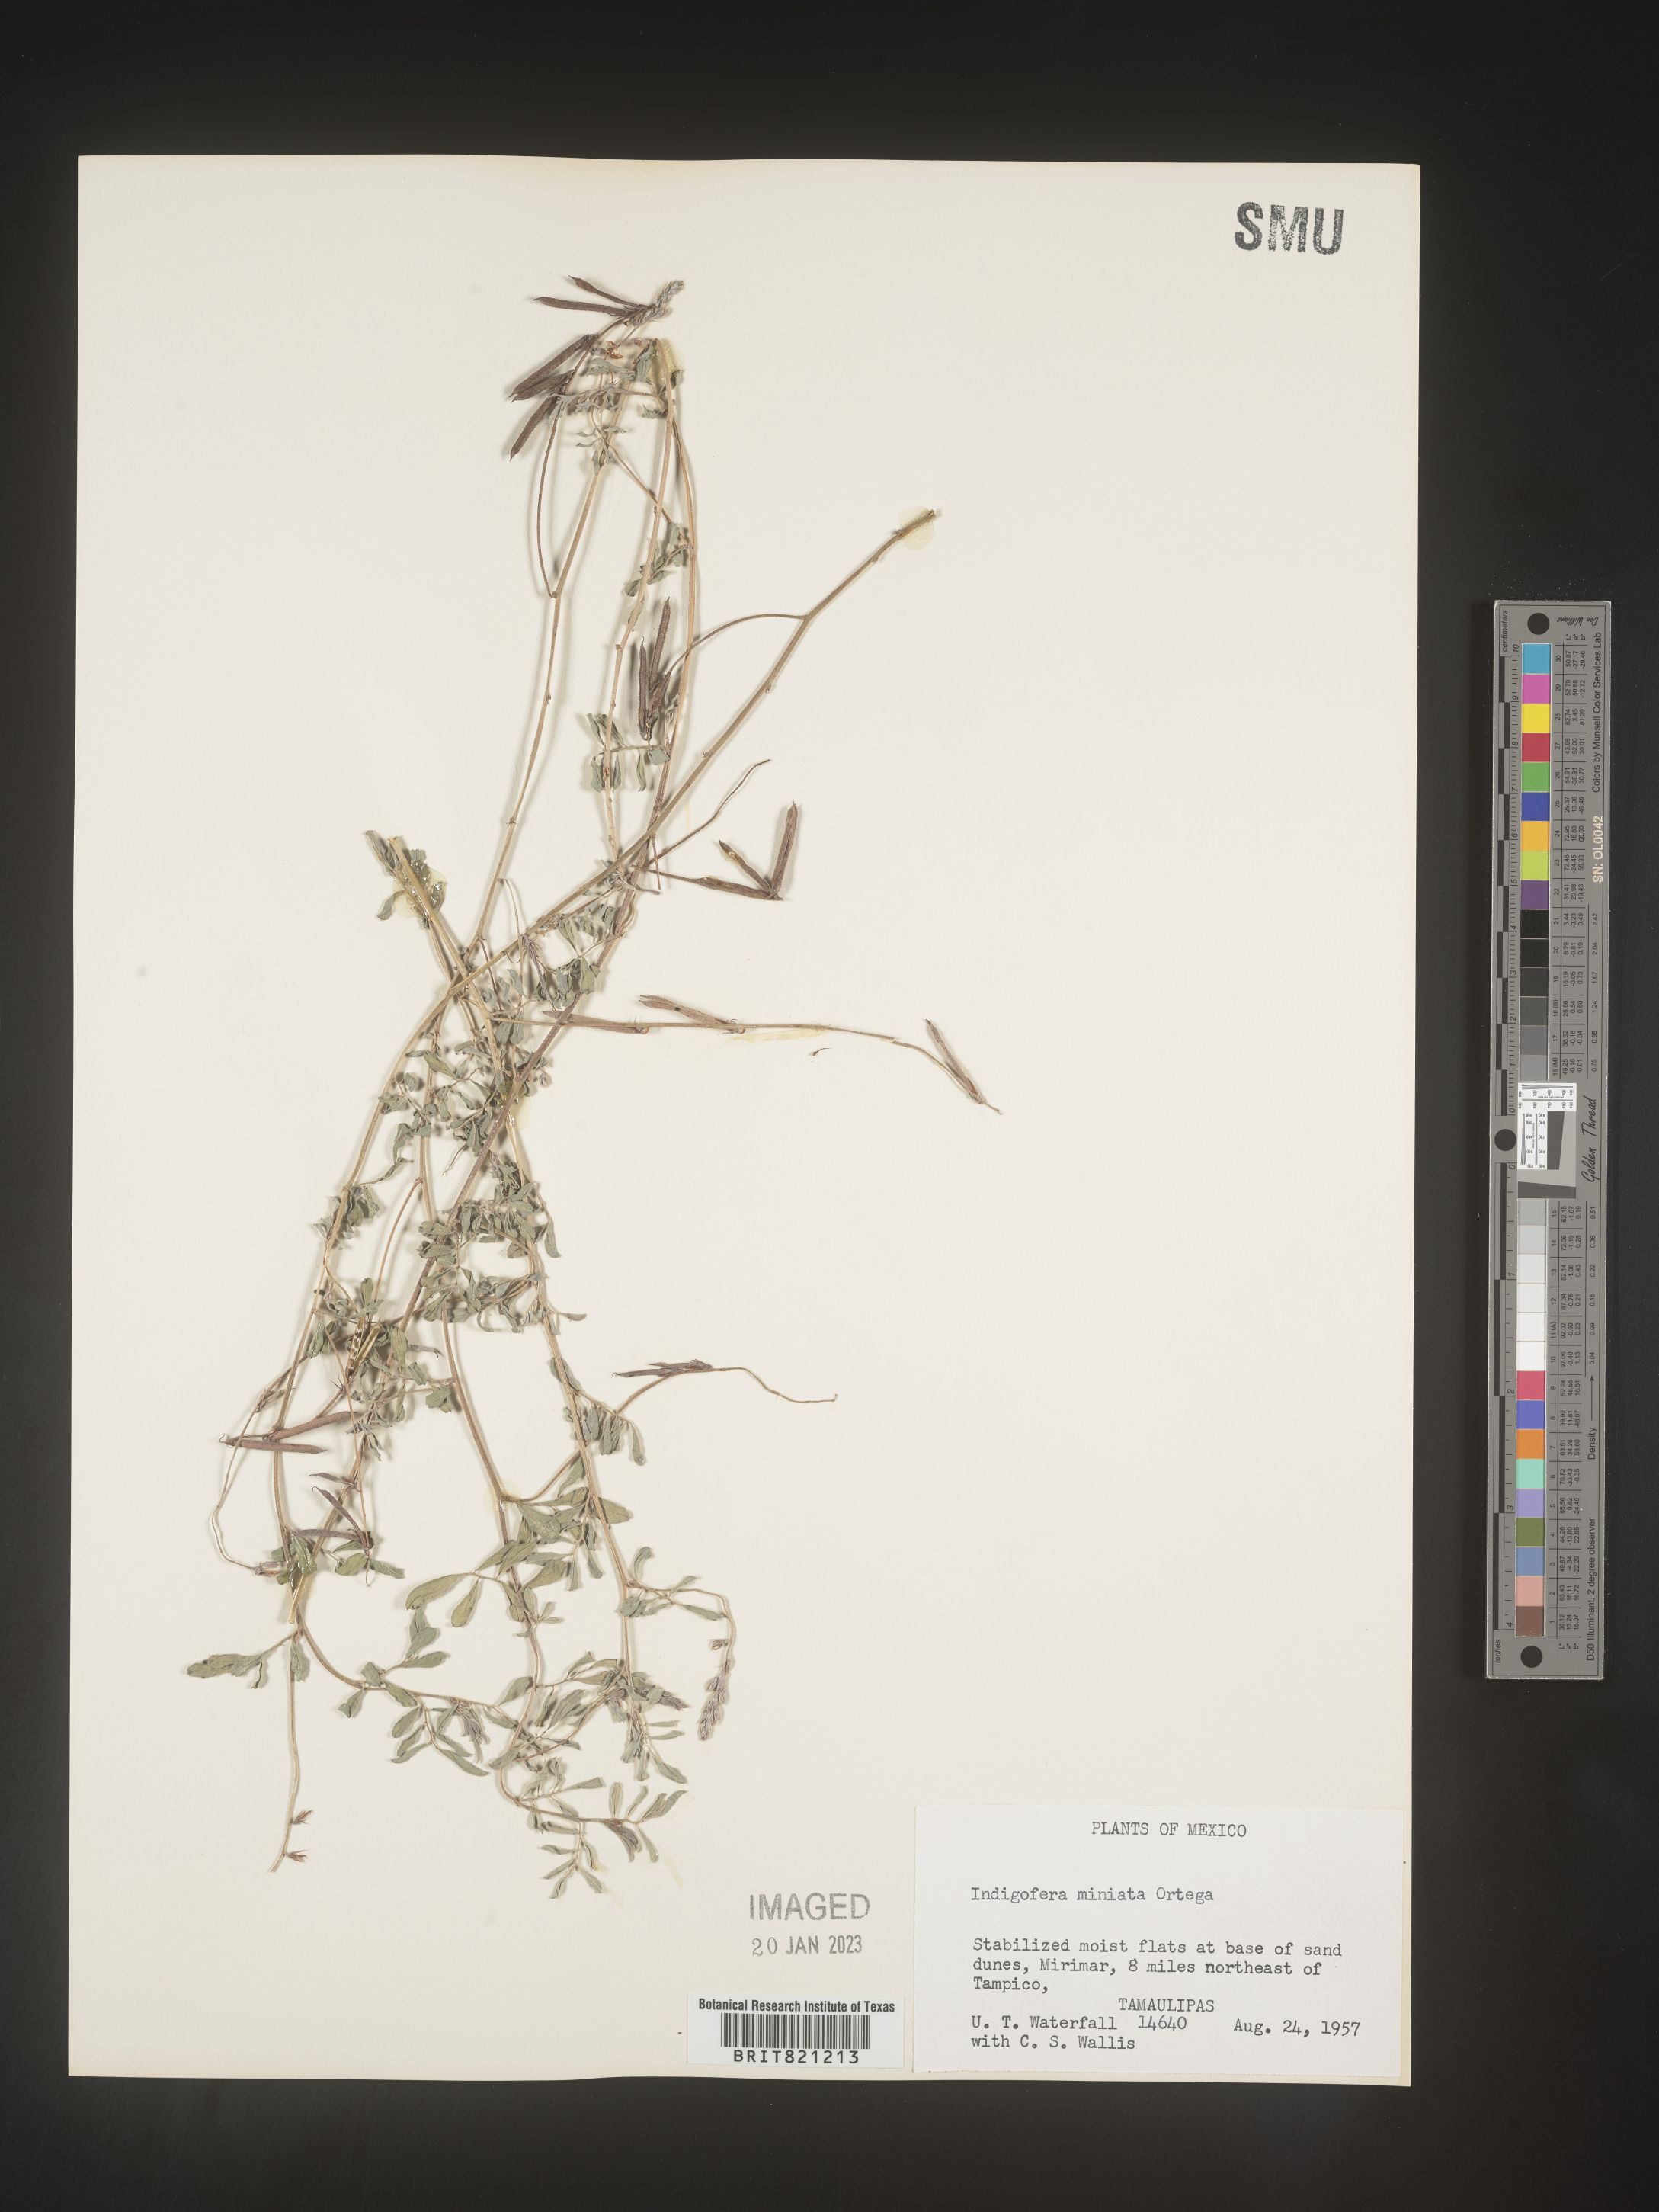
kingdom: Plantae
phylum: Tracheophyta
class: Magnoliopsida
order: Fabales
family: Fabaceae
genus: Indigofera
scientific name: Indigofera
